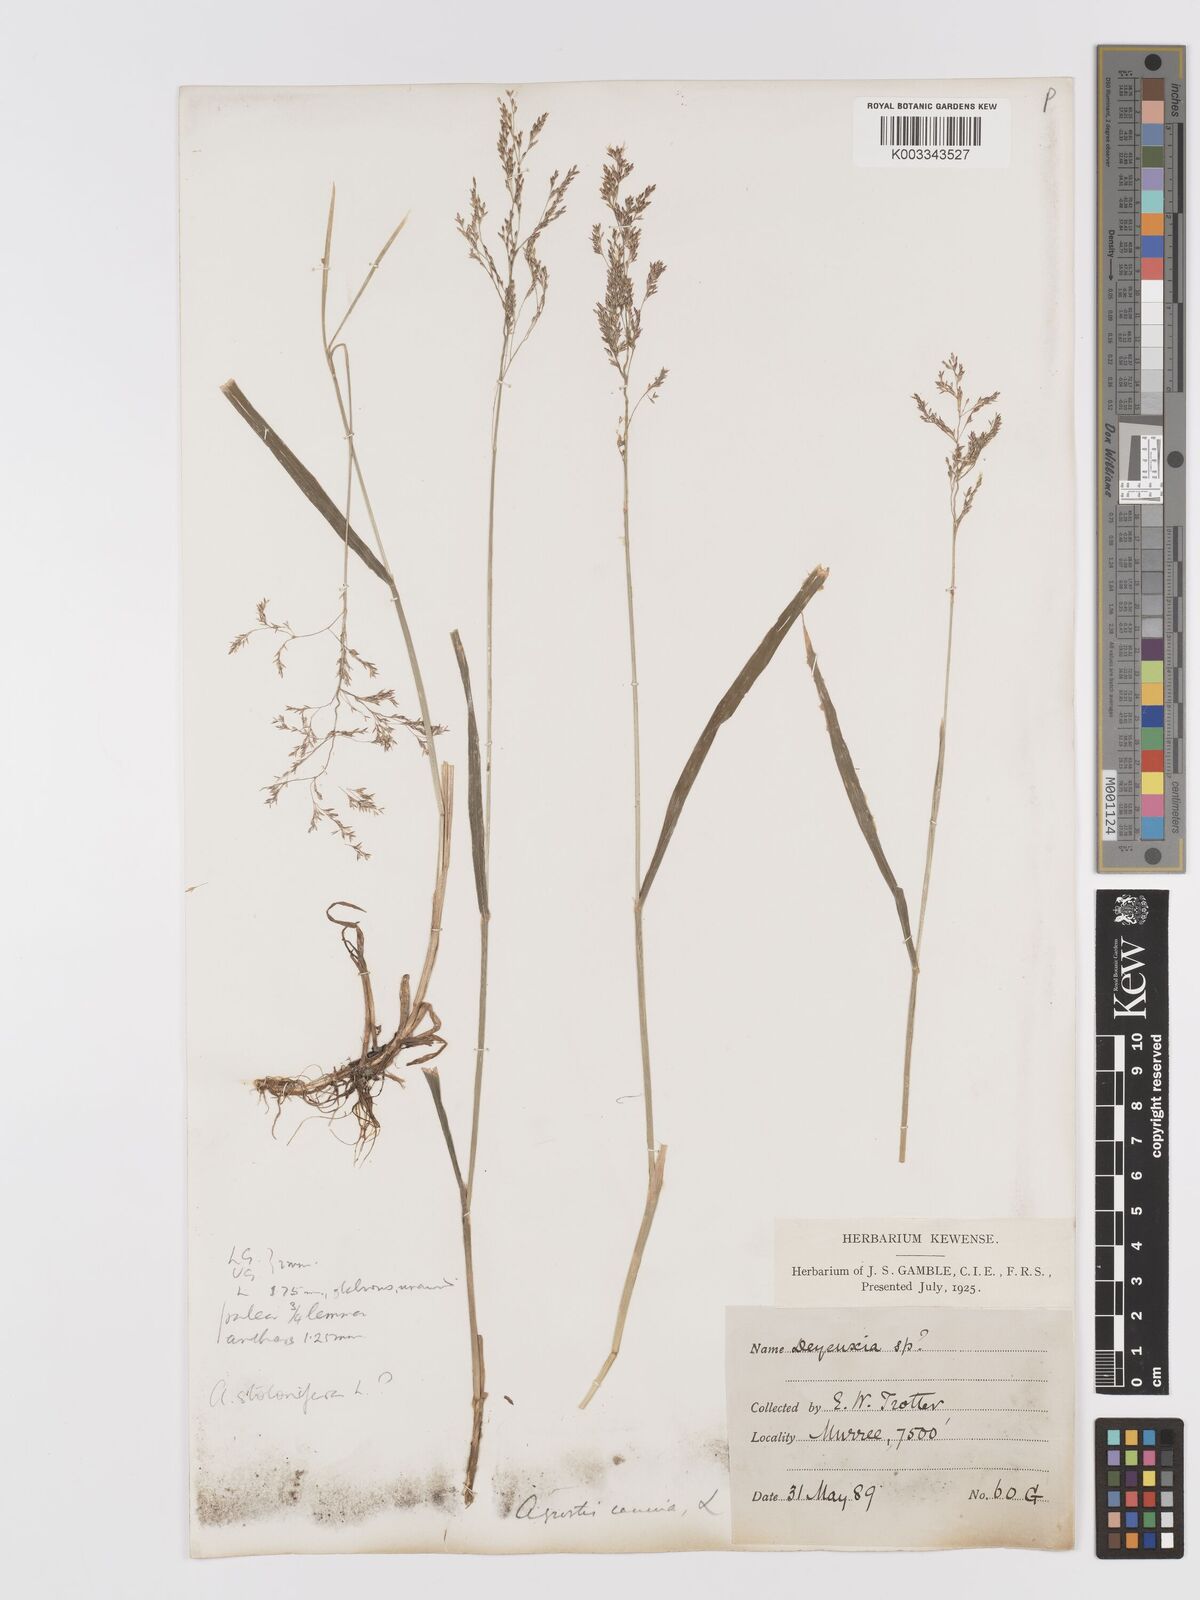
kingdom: Plantae
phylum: Tracheophyta
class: Liliopsida
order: Poales
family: Poaceae
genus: Agrostis
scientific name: Agrostis gigantea
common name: Black bent
